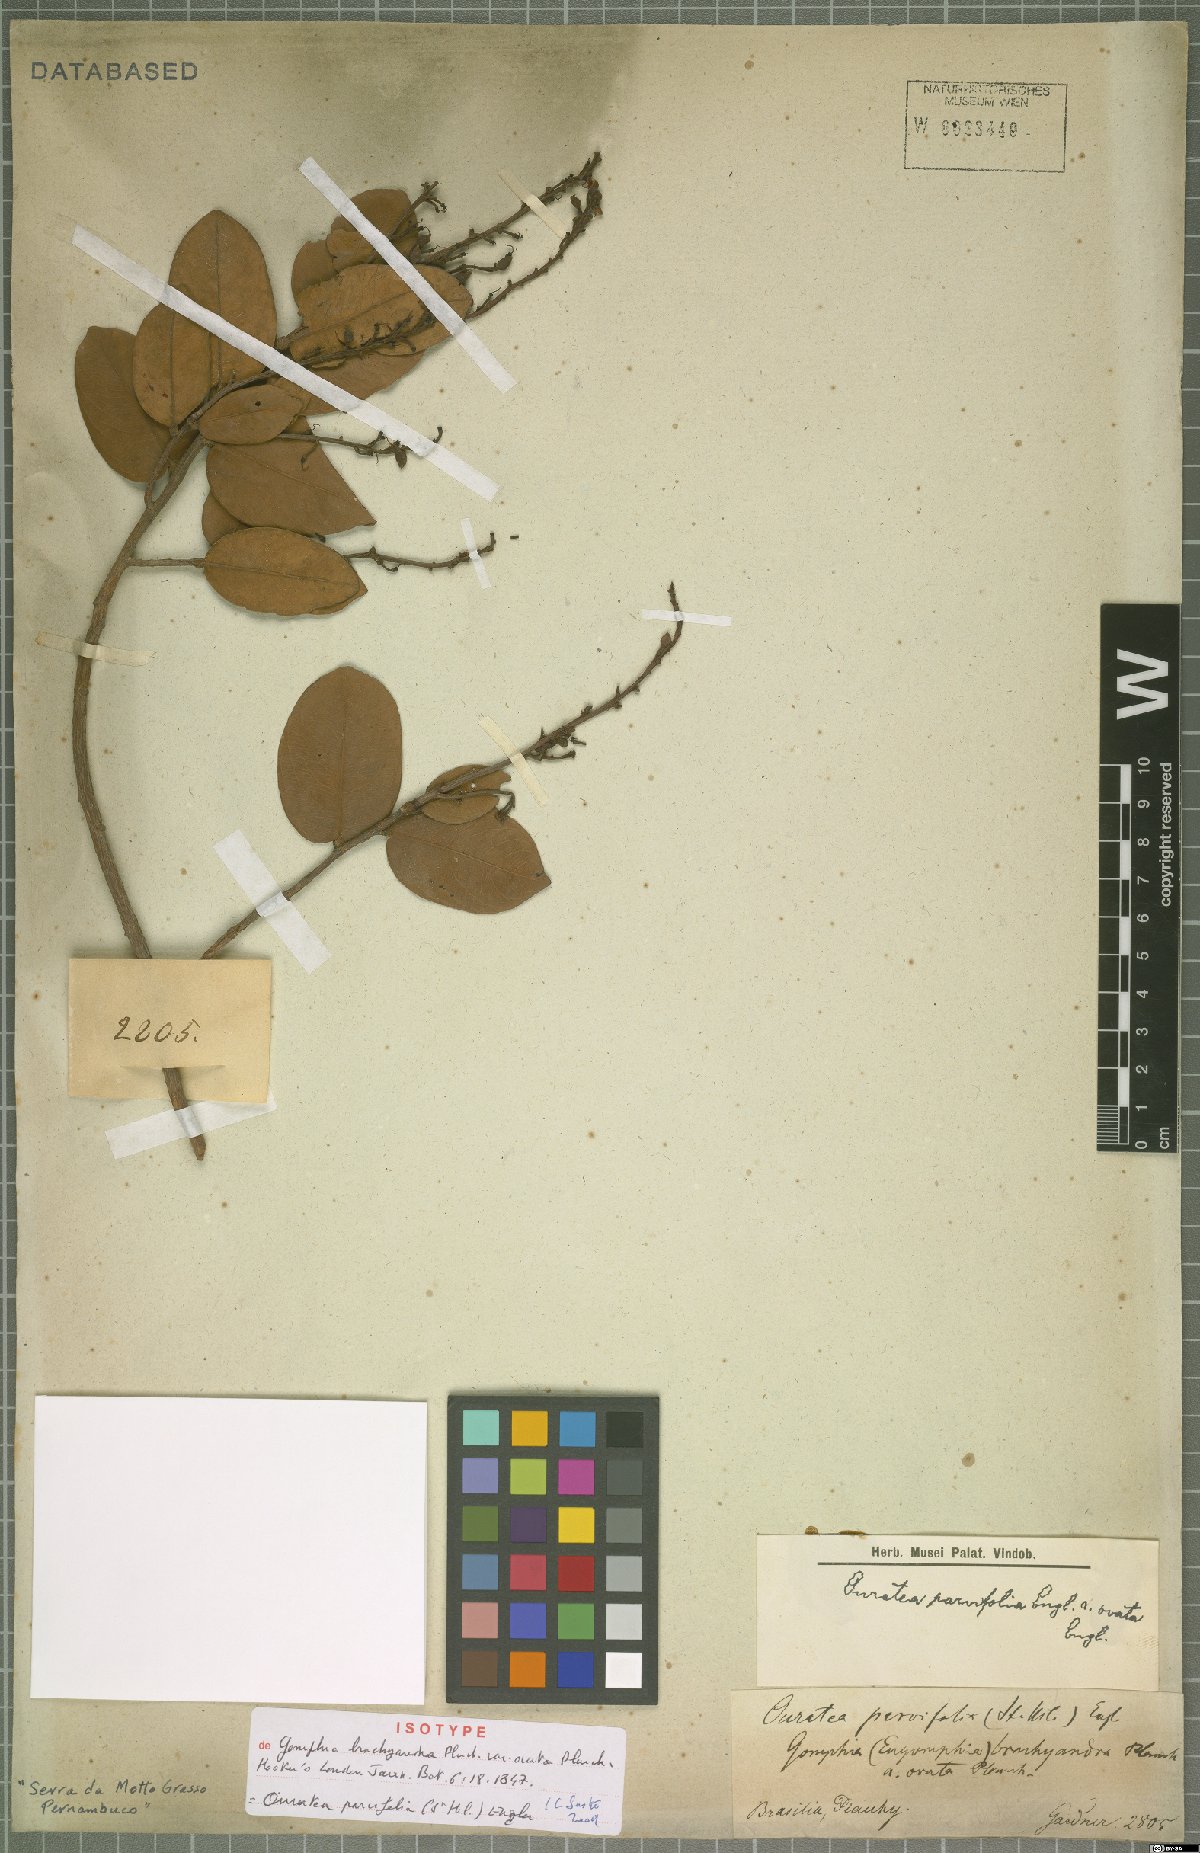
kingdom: Plantae
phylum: Tracheophyta
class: Magnoliopsida
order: Malpighiales
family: Ochnaceae
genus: Ouratea
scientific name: Ouratea parvifolia
